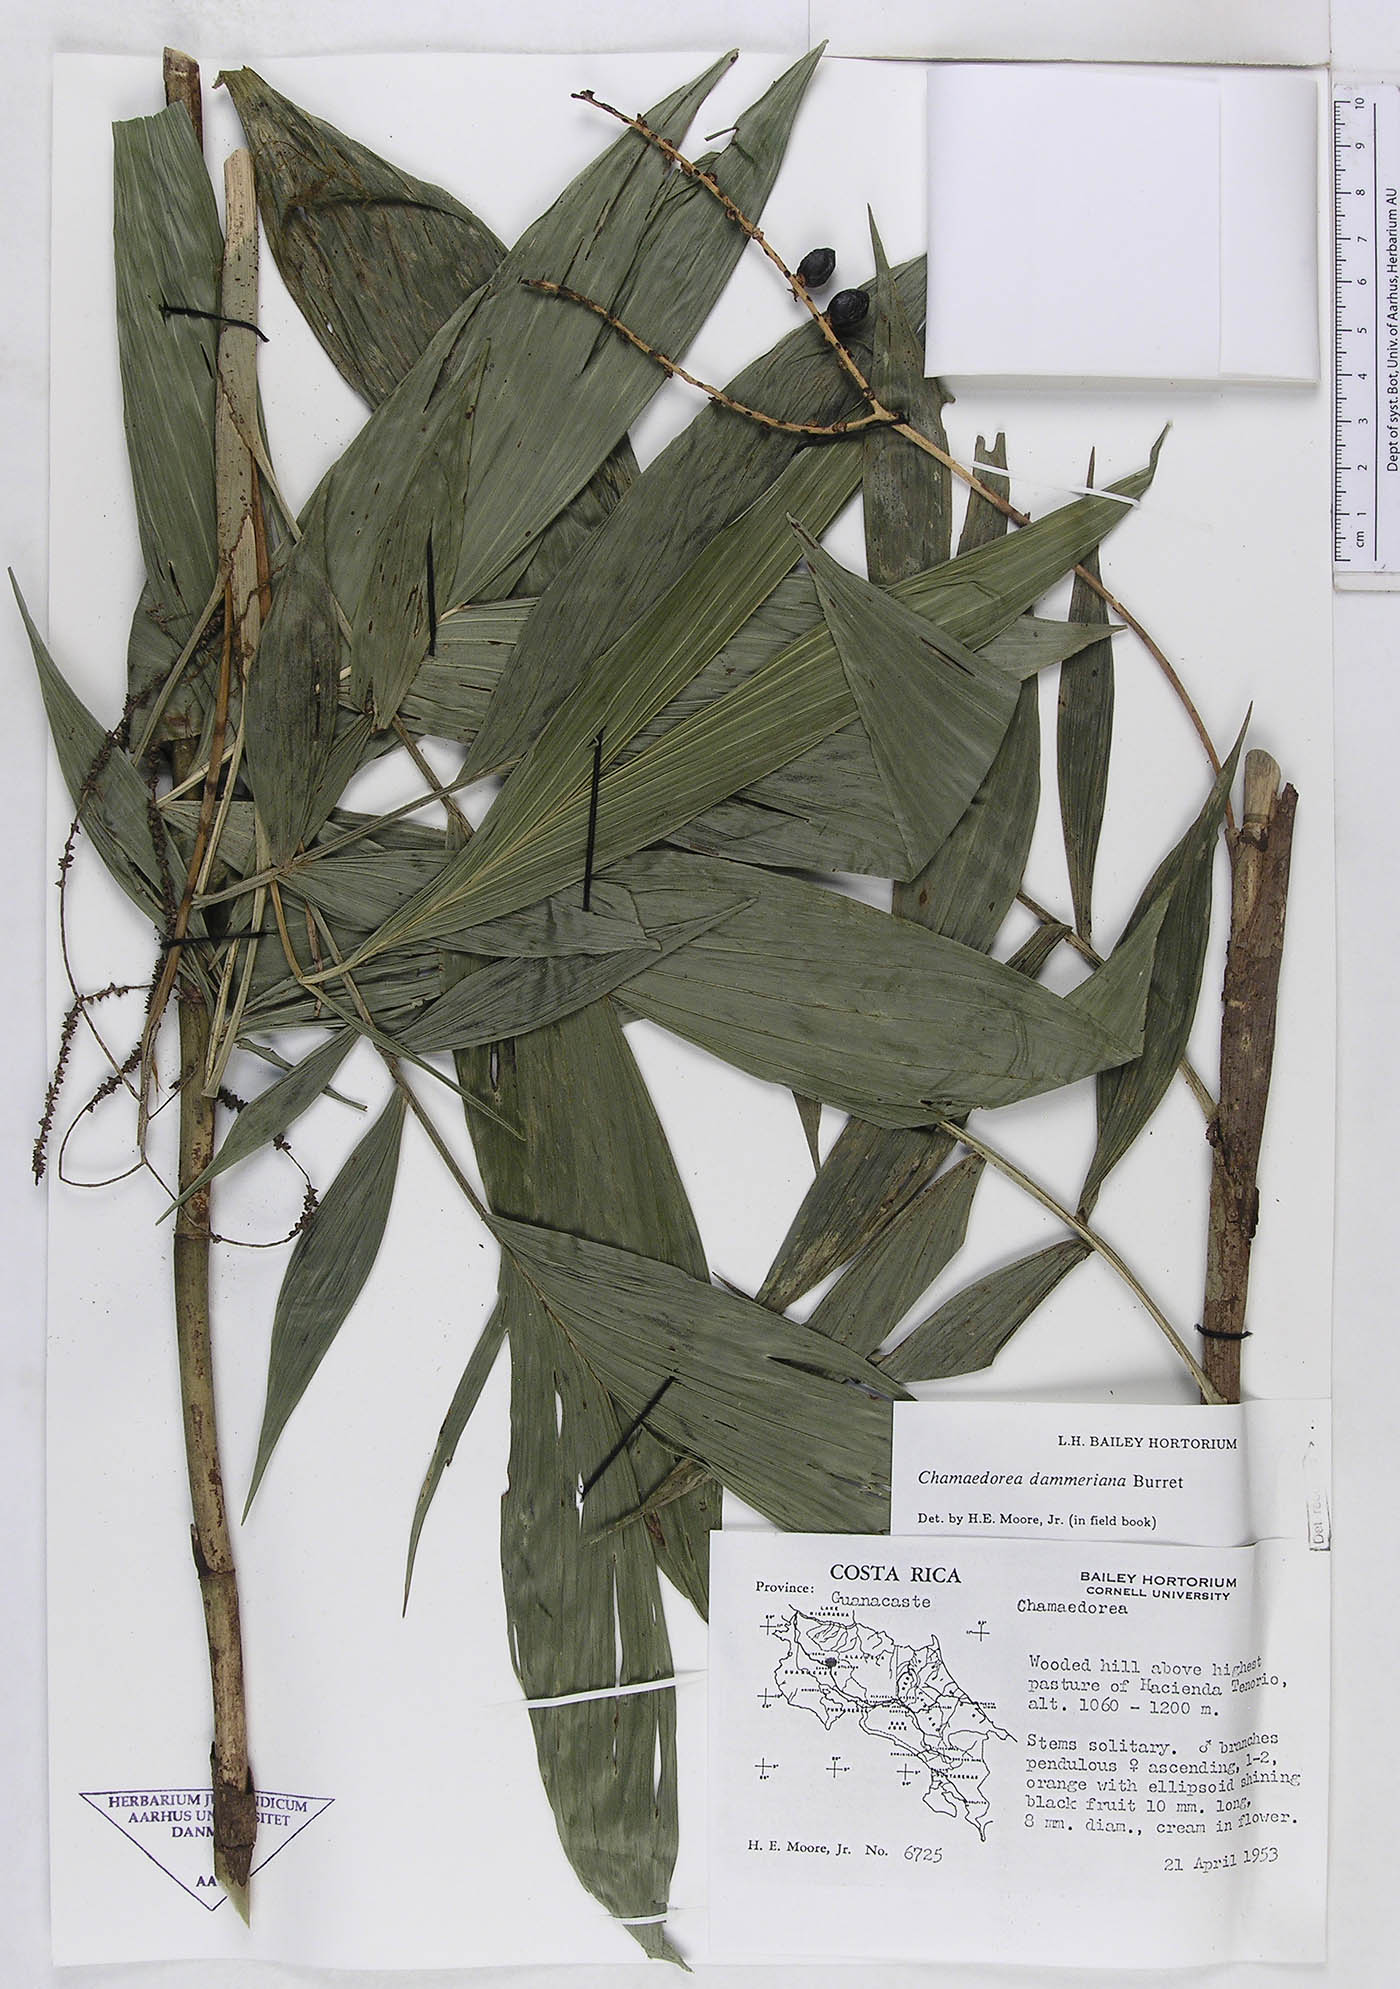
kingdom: Plantae
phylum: Tracheophyta
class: Liliopsida
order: Arecales
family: Arecaceae
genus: Chamaedorea
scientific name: Chamaedorea dammeriana
